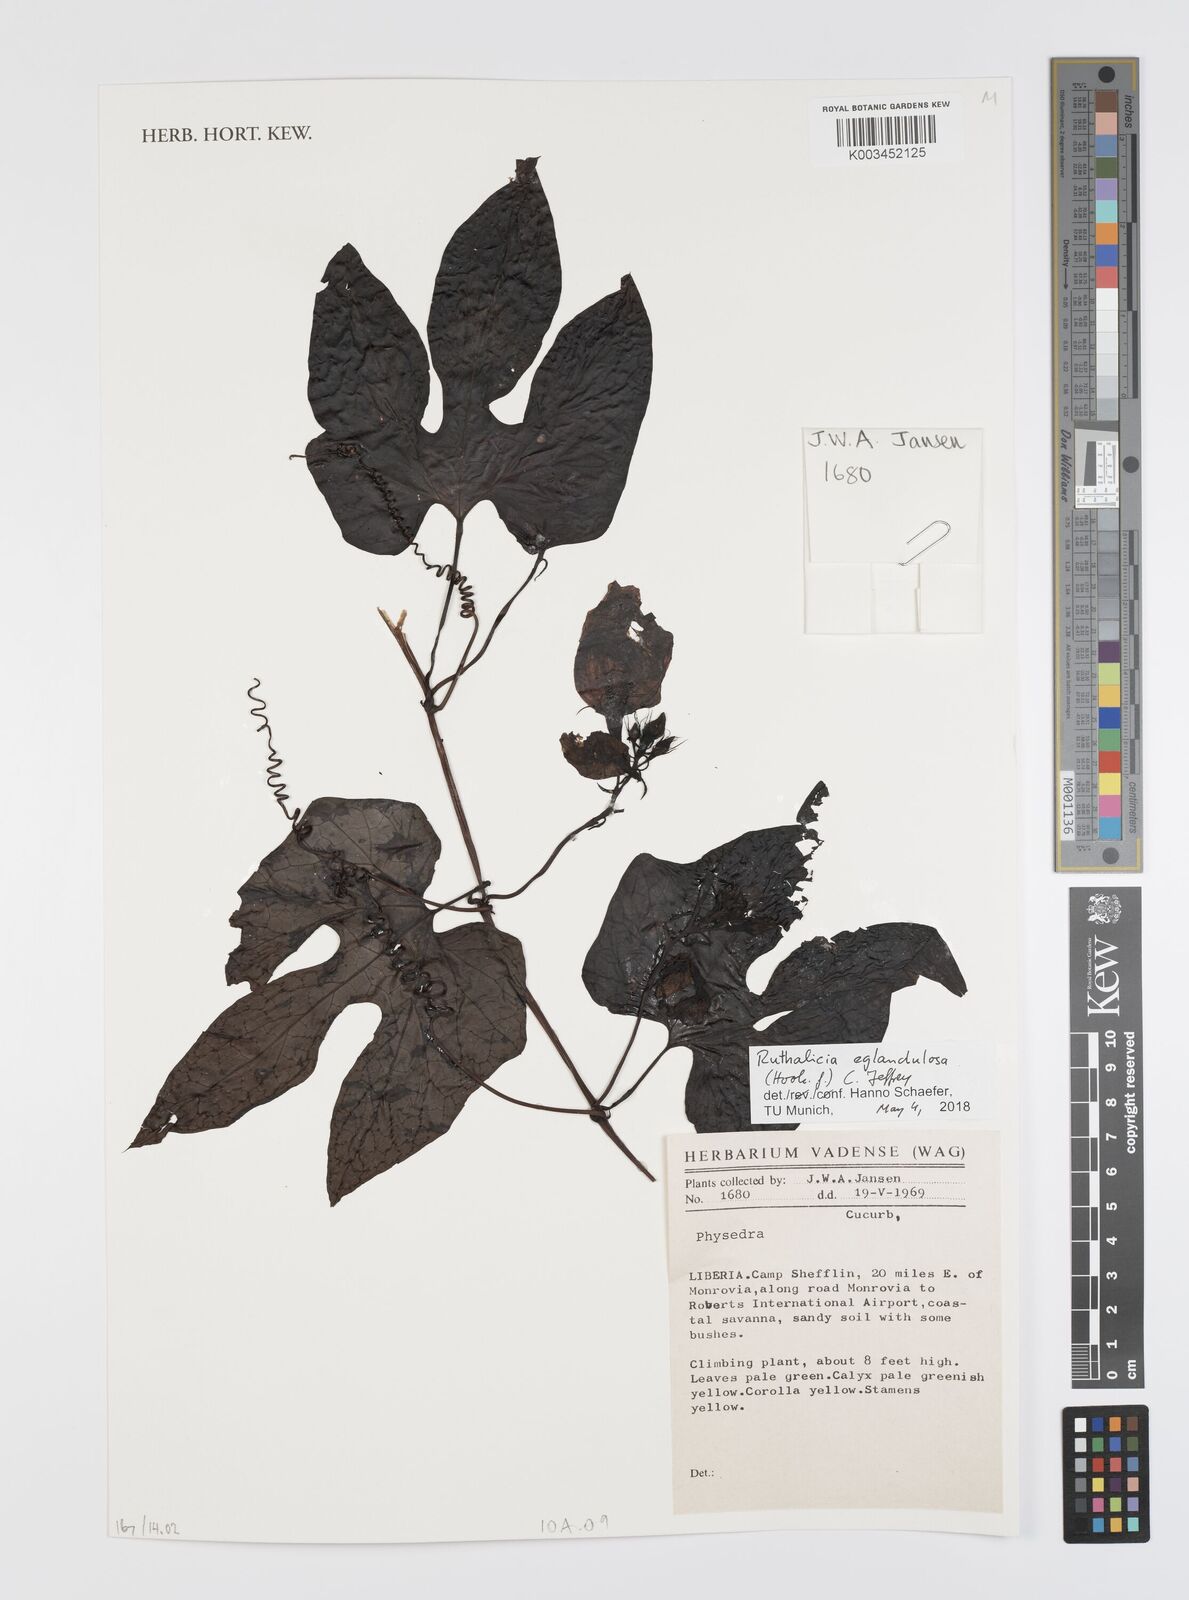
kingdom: Plantae
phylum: Tracheophyta
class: Magnoliopsida
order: Cucurbitales
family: Cucurbitaceae
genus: Ruthalicia
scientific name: Ruthalicia eglandulosa
